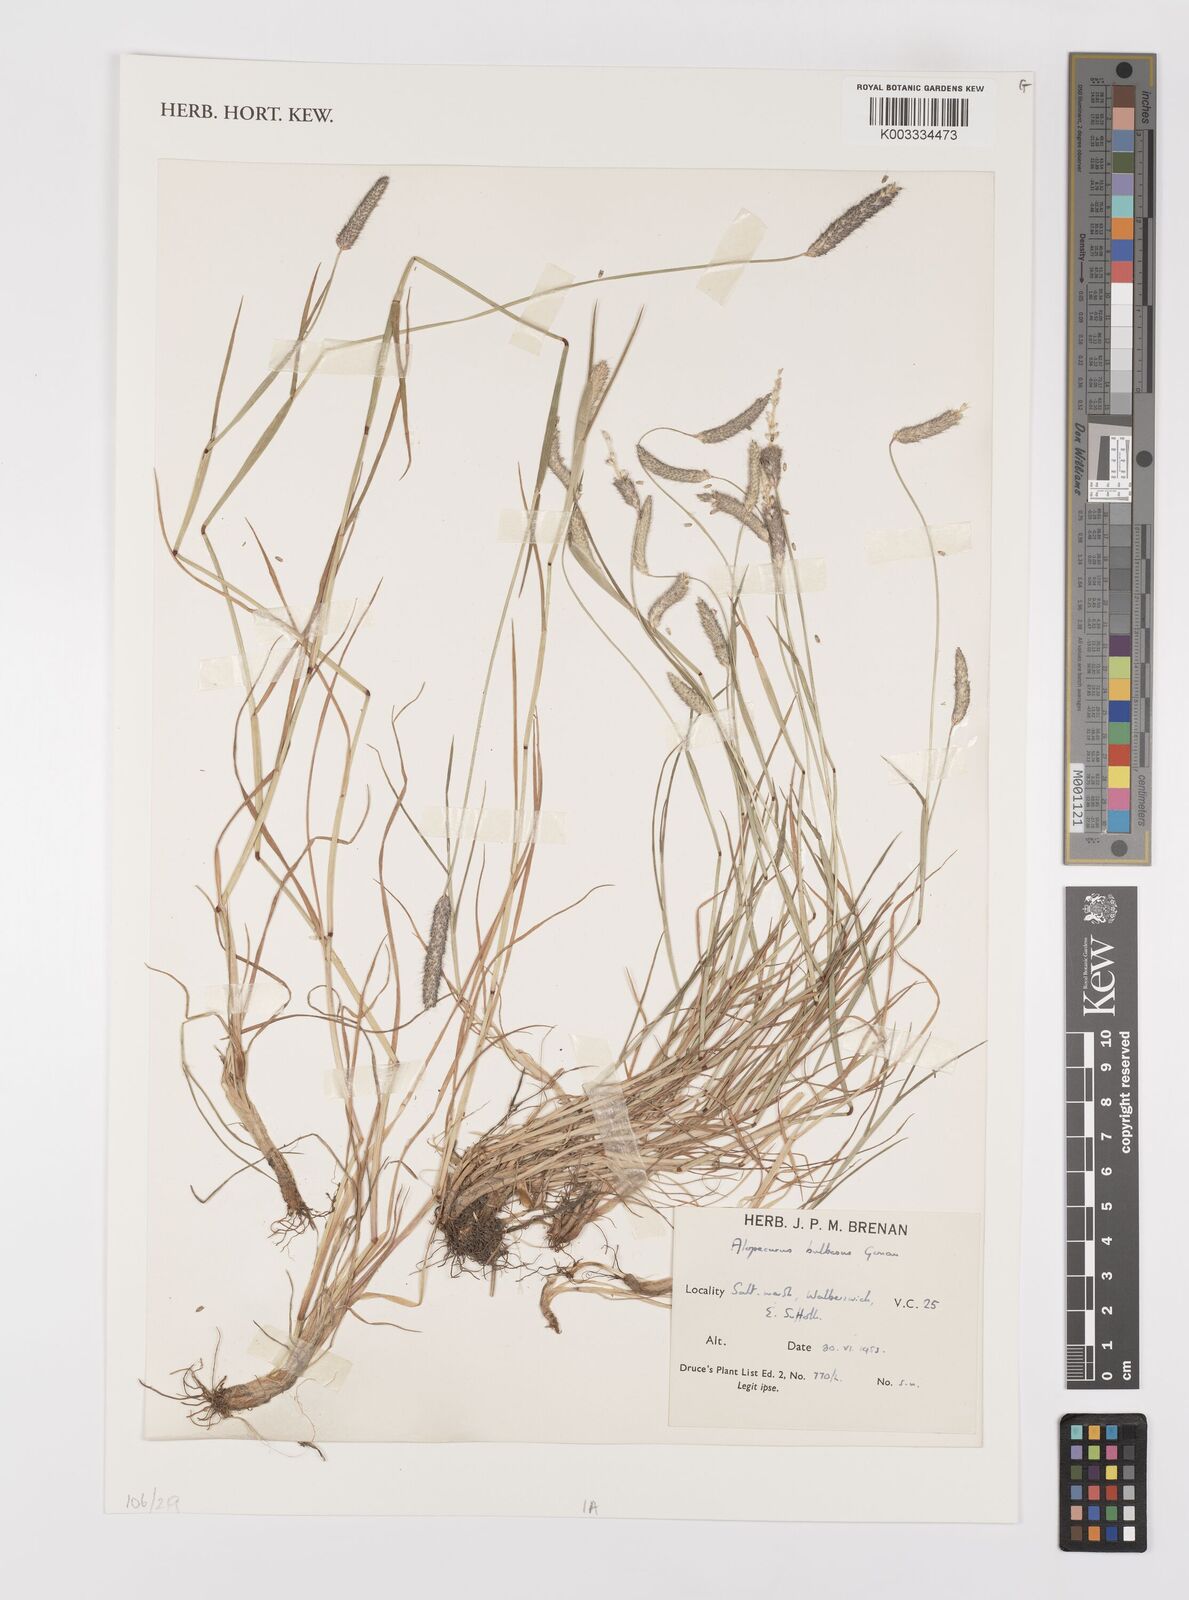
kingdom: Plantae
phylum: Tracheophyta
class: Liliopsida
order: Poales
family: Poaceae
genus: Alopecurus
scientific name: Alopecurus bulbosus
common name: Bulbous foxtail
